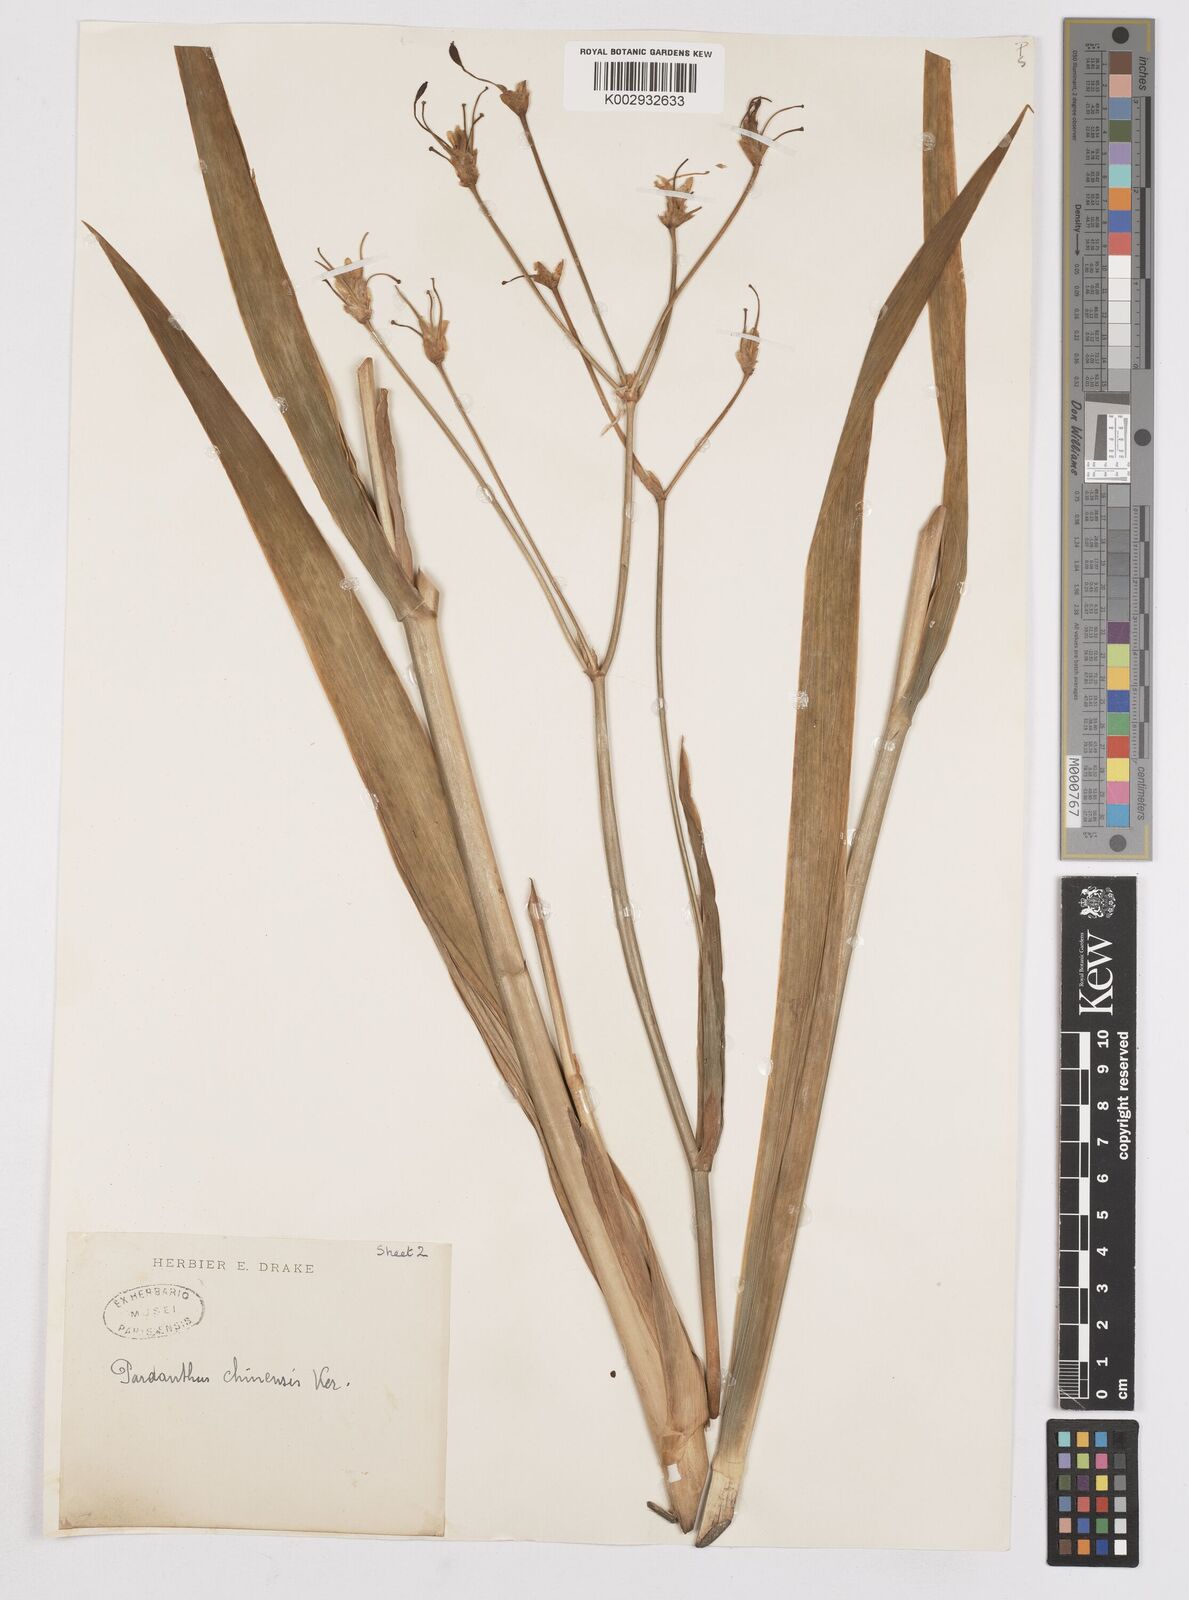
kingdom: Plantae
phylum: Tracheophyta
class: Liliopsida
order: Asparagales
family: Iridaceae
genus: Iris
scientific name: Iris
